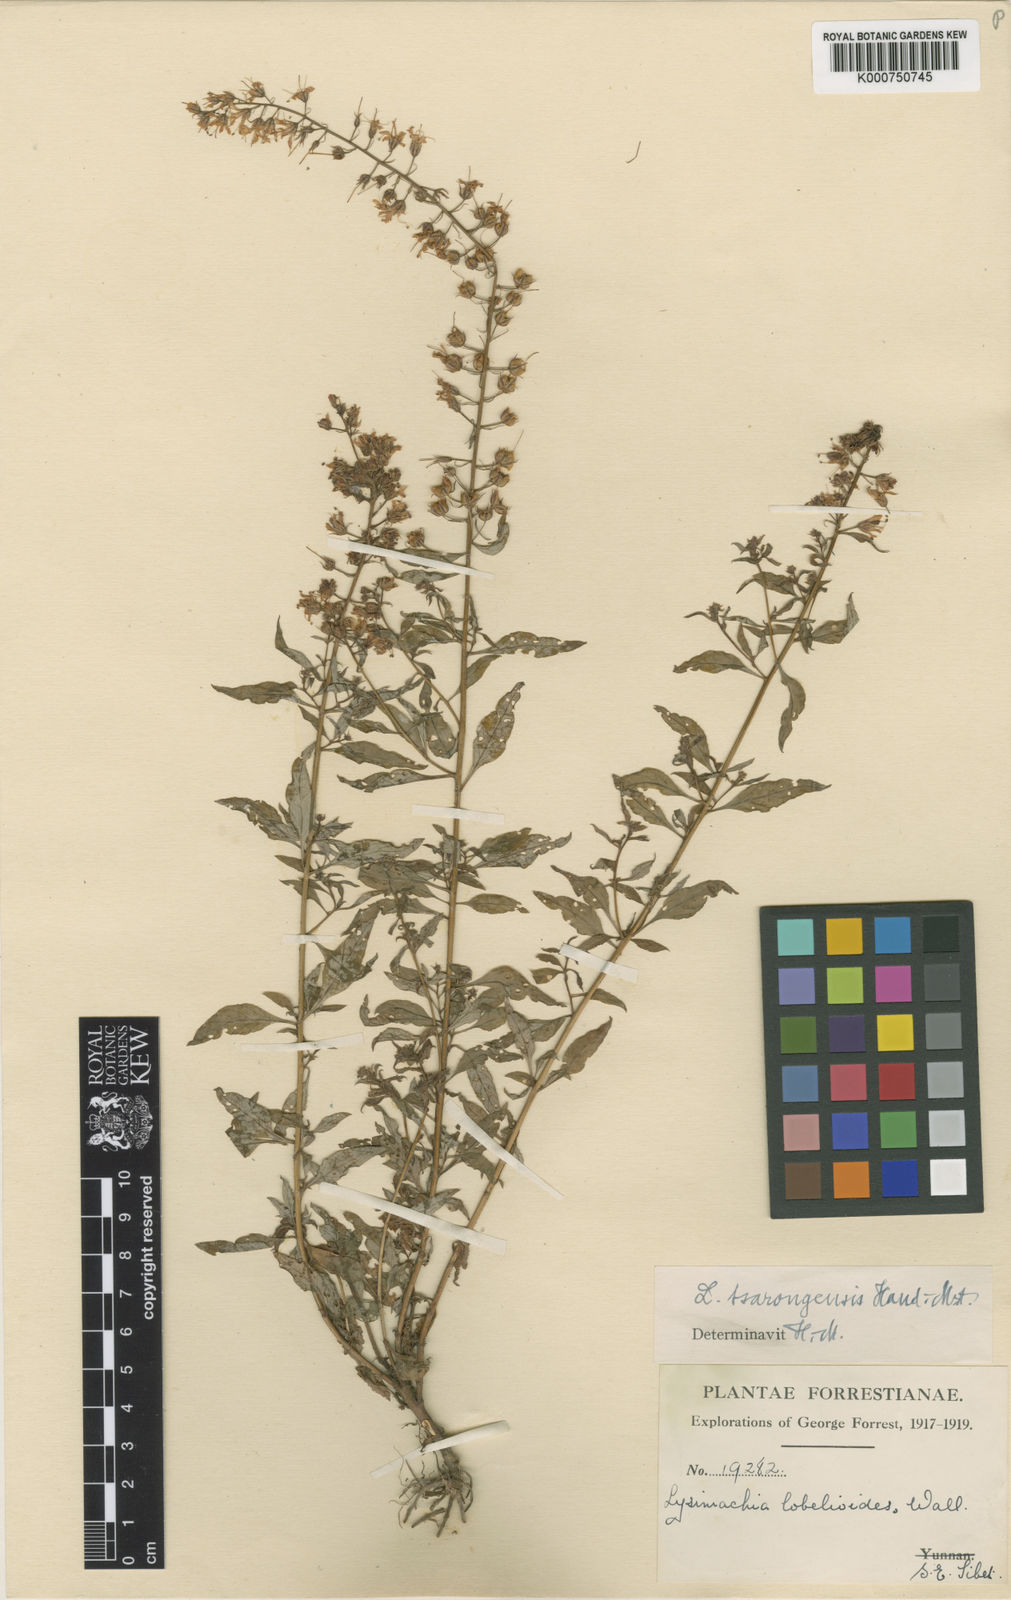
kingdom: Plantae
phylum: Tracheophyta
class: Magnoliopsida
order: Ericales
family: Primulaceae
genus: Lysimachia
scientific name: Lysimachia tsarongensis
